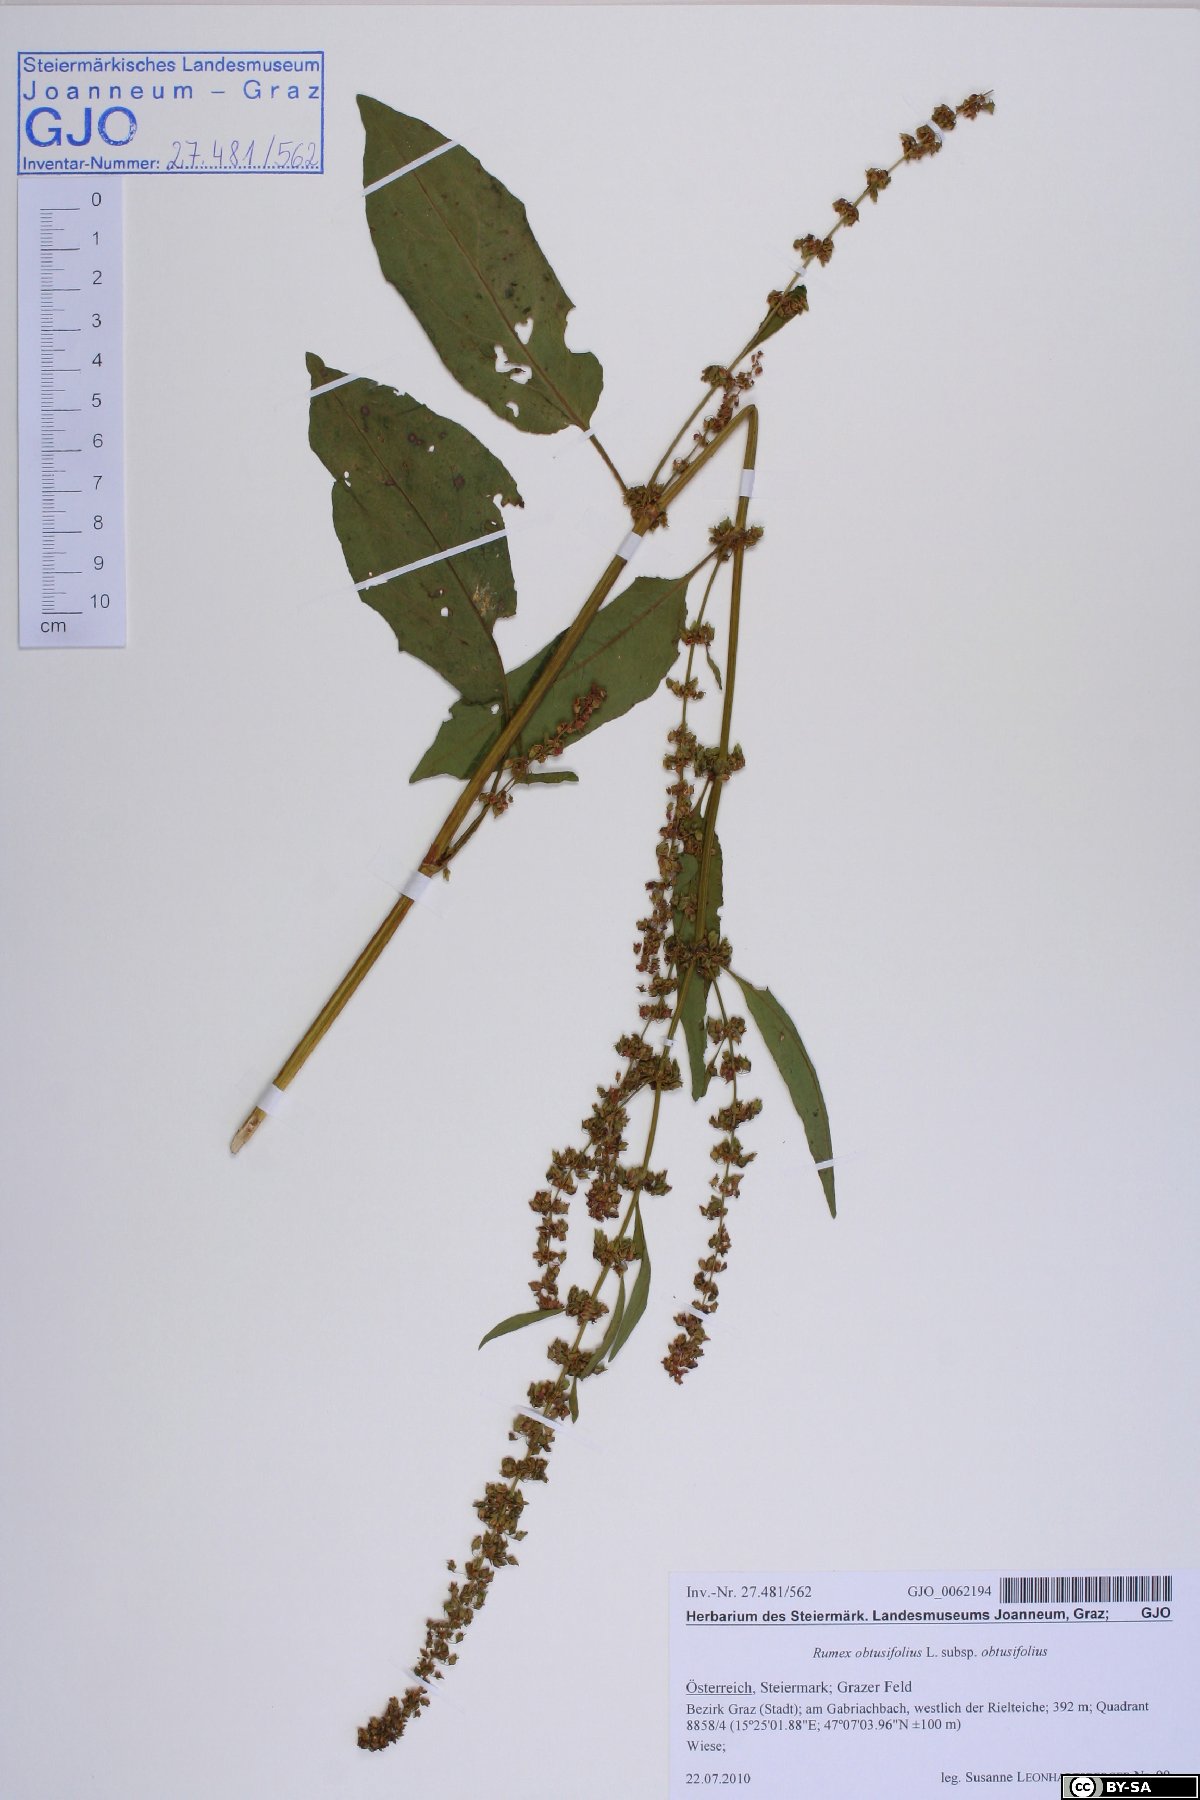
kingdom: Plantae
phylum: Tracheophyta
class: Magnoliopsida
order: Caryophyllales
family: Polygonaceae
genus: Rumex
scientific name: Rumex obtusifolius
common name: Bitter dock
